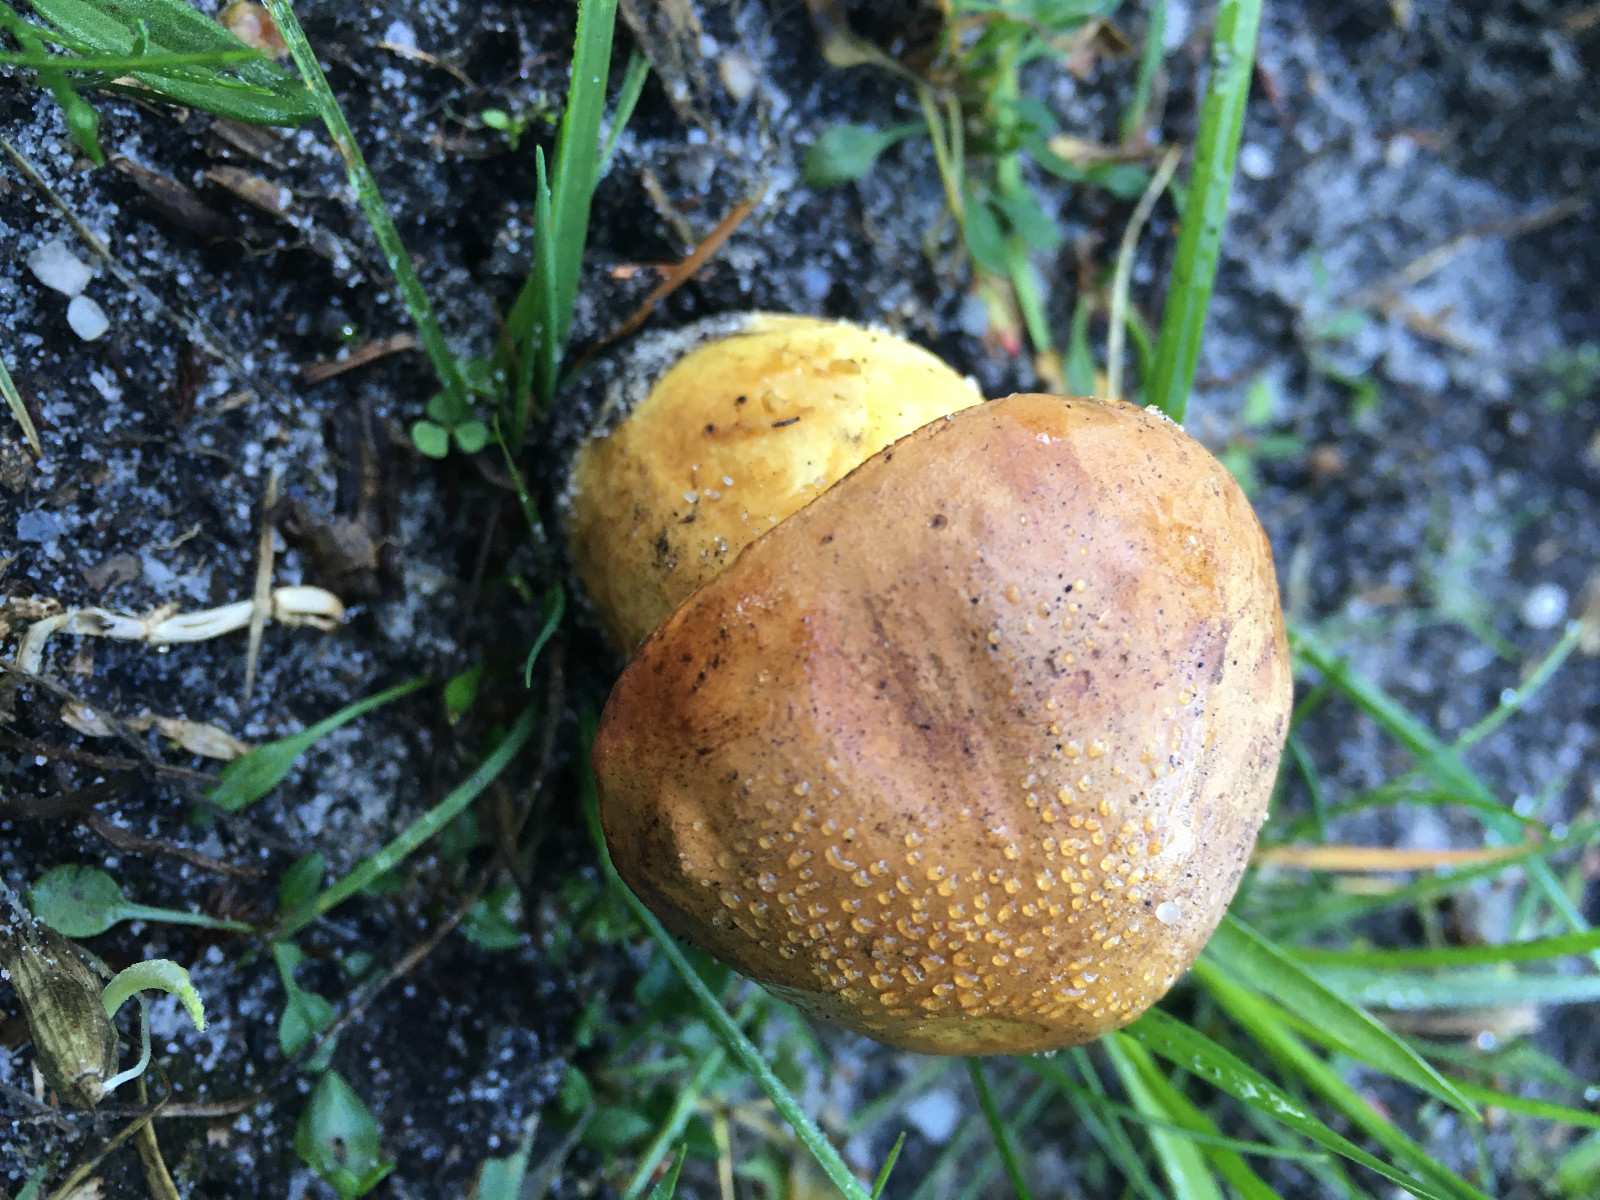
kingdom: Fungi
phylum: Basidiomycota
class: Agaricomycetes
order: Boletales
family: Boletaceae
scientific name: Boletaceae
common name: rørhatfamilien
